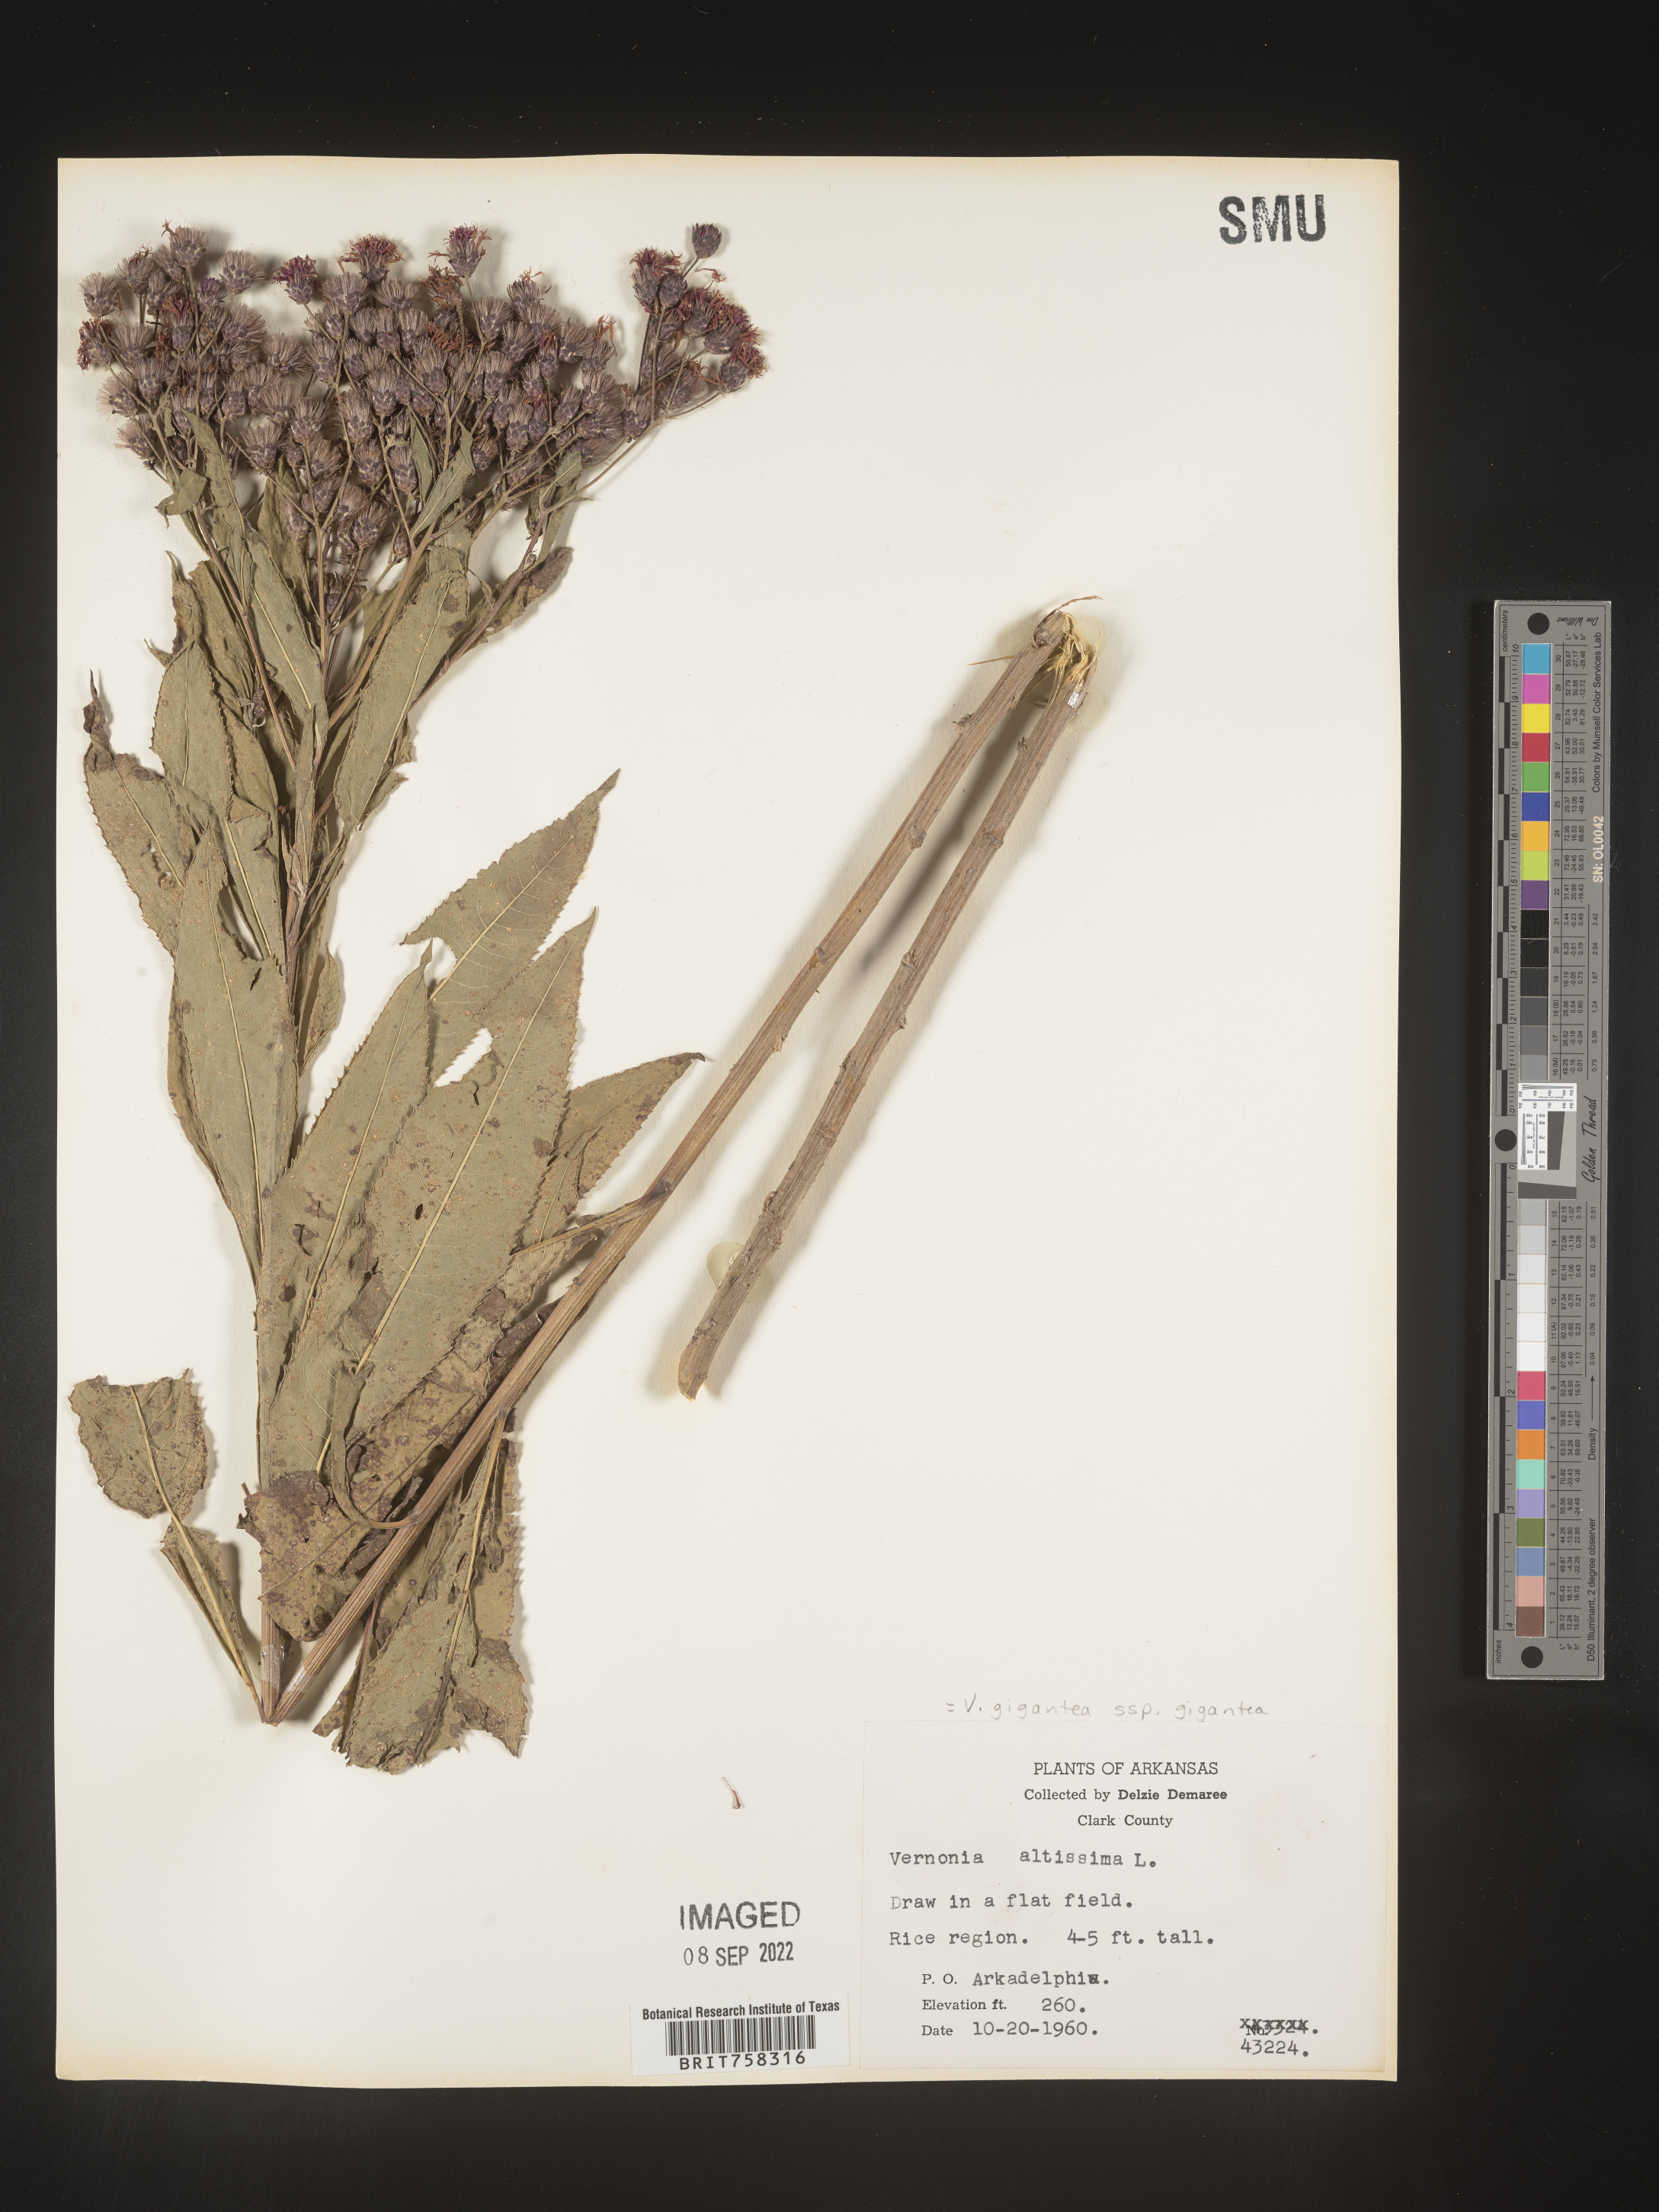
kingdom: Plantae
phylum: Tracheophyta
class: Magnoliopsida
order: Asterales
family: Asteraceae
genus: Vernonia
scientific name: Vernonia gigantea
